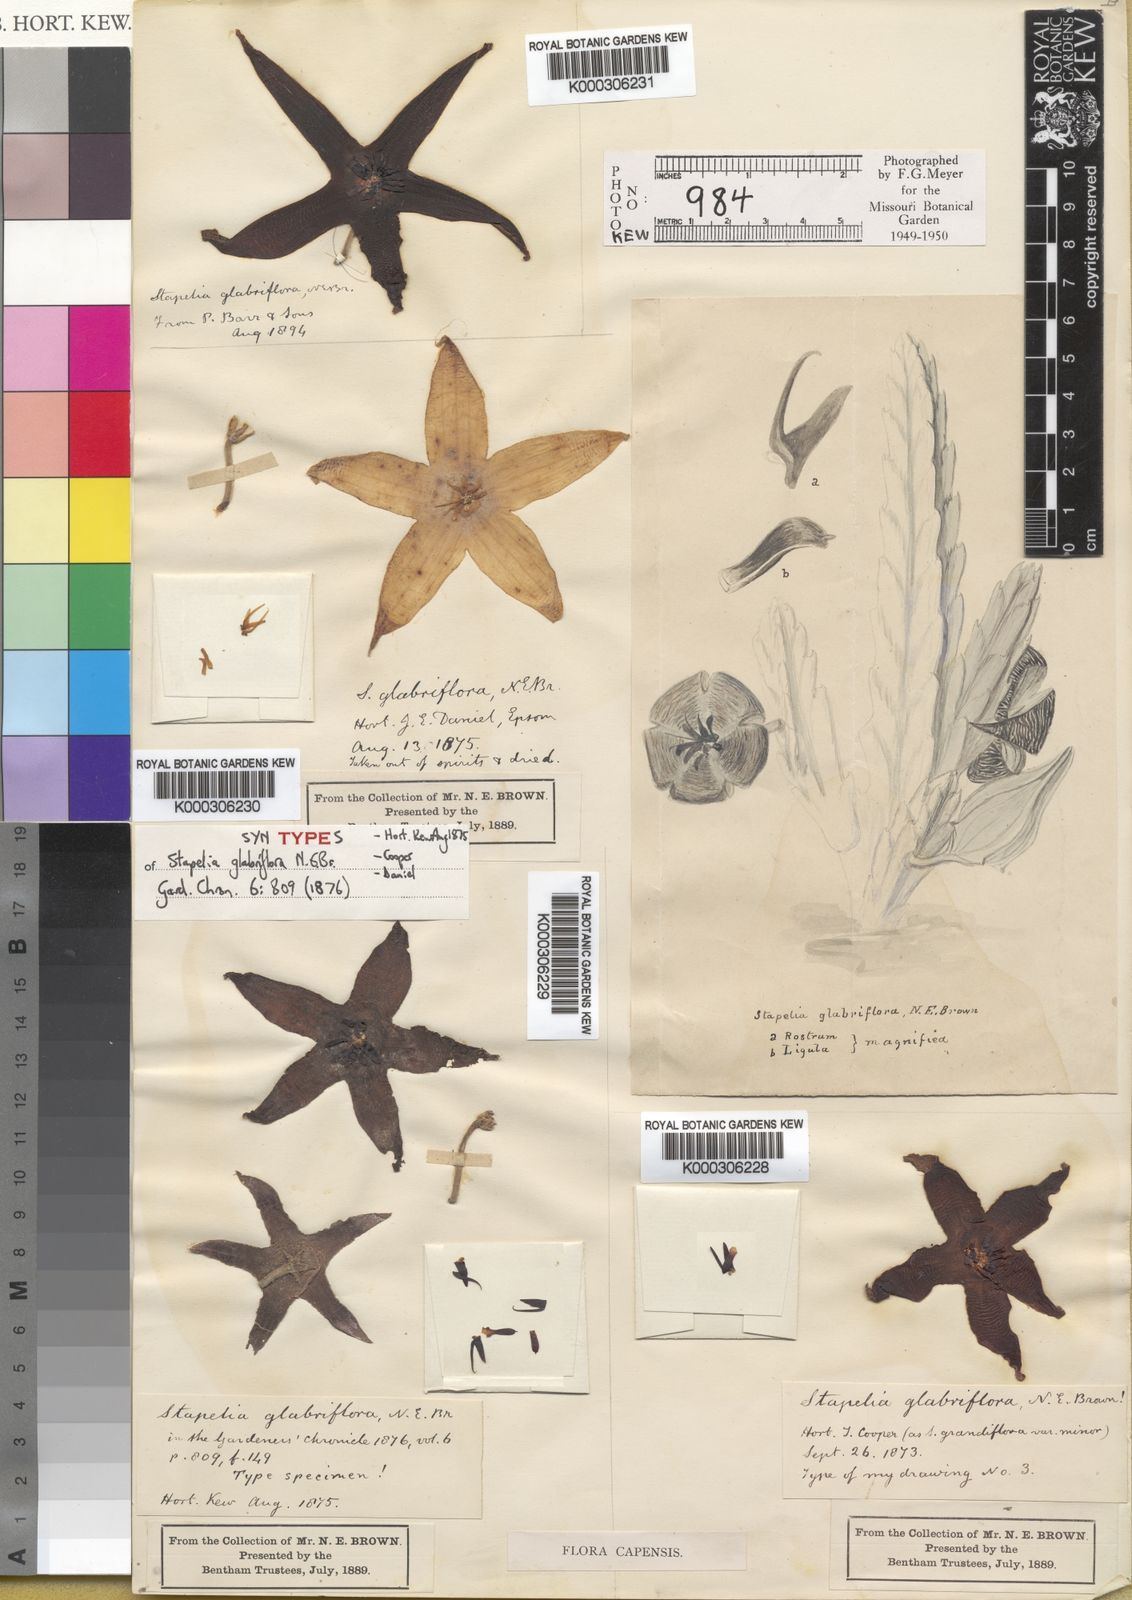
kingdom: Plantae
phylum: Tracheophyta
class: Magnoliopsida
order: Gentianales
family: Apocynaceae
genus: Stapelia
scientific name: Stapelia glabriflora
